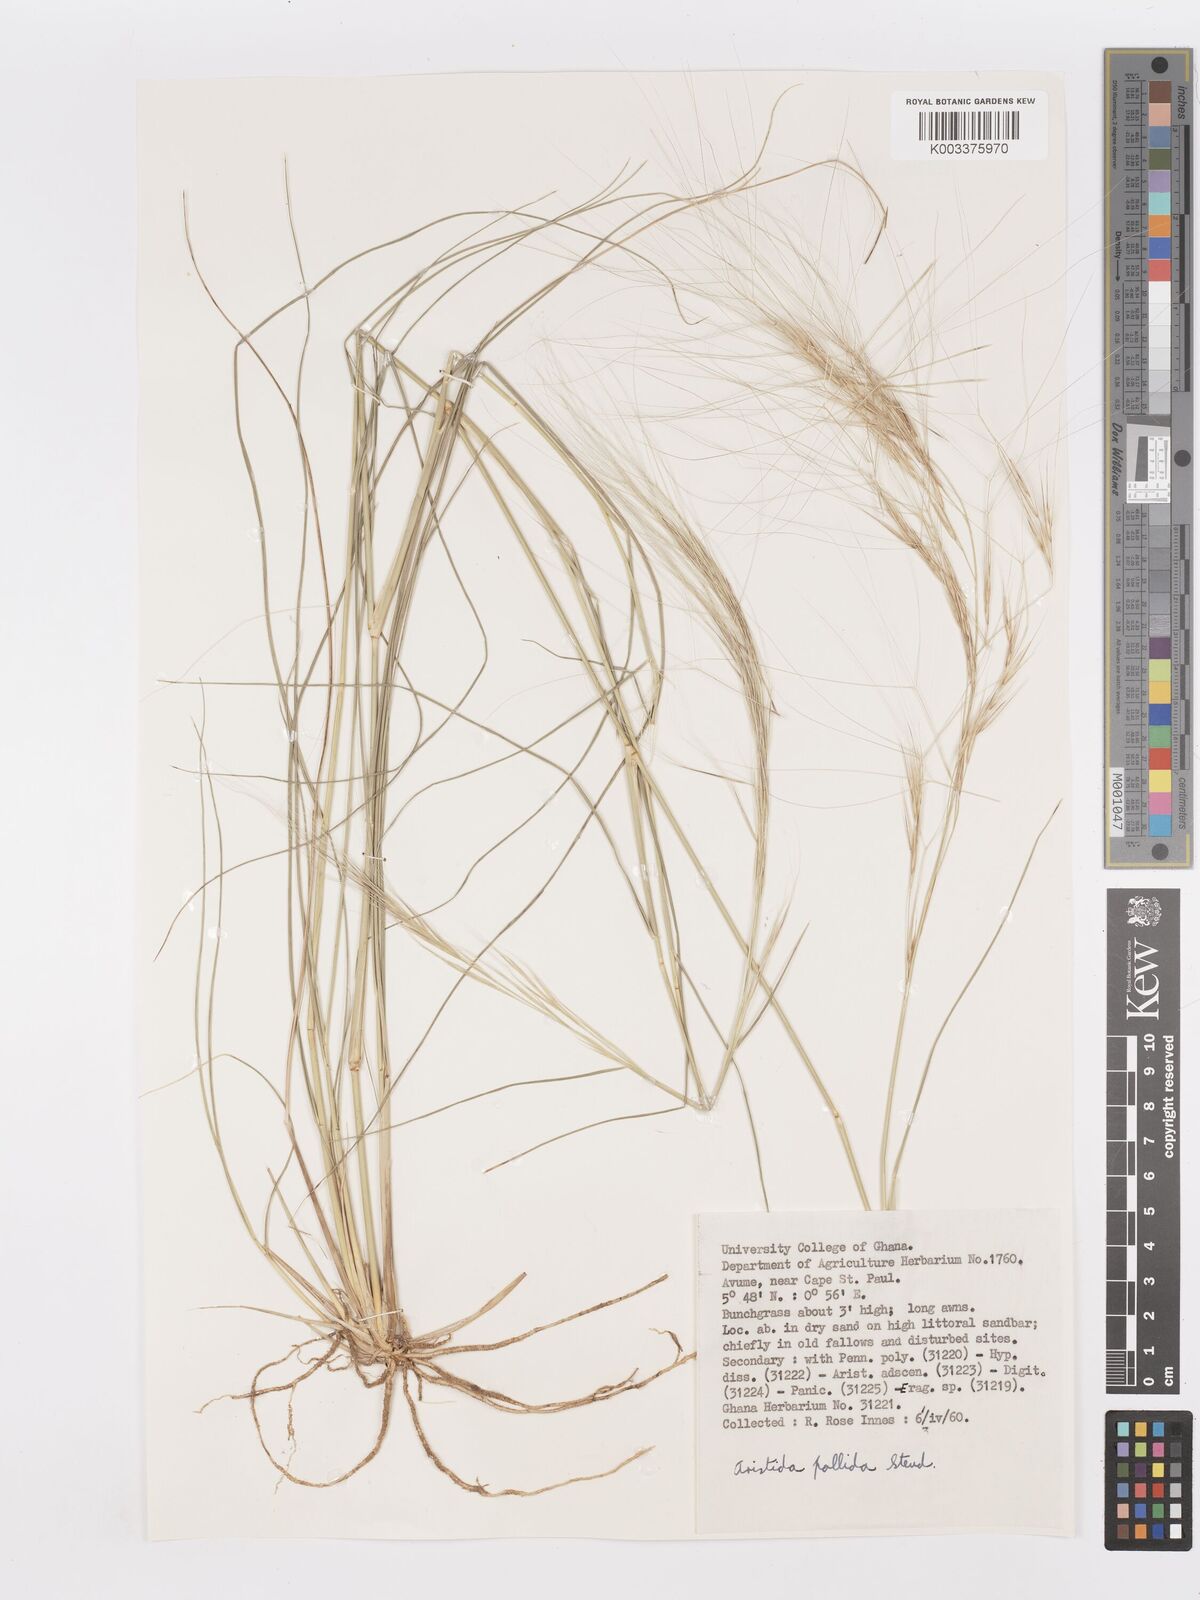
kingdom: Plantae
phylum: Tracheophyta
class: Liliopsida
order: Poales
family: Poaceae
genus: Aristida
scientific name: Aristida sieberiana
